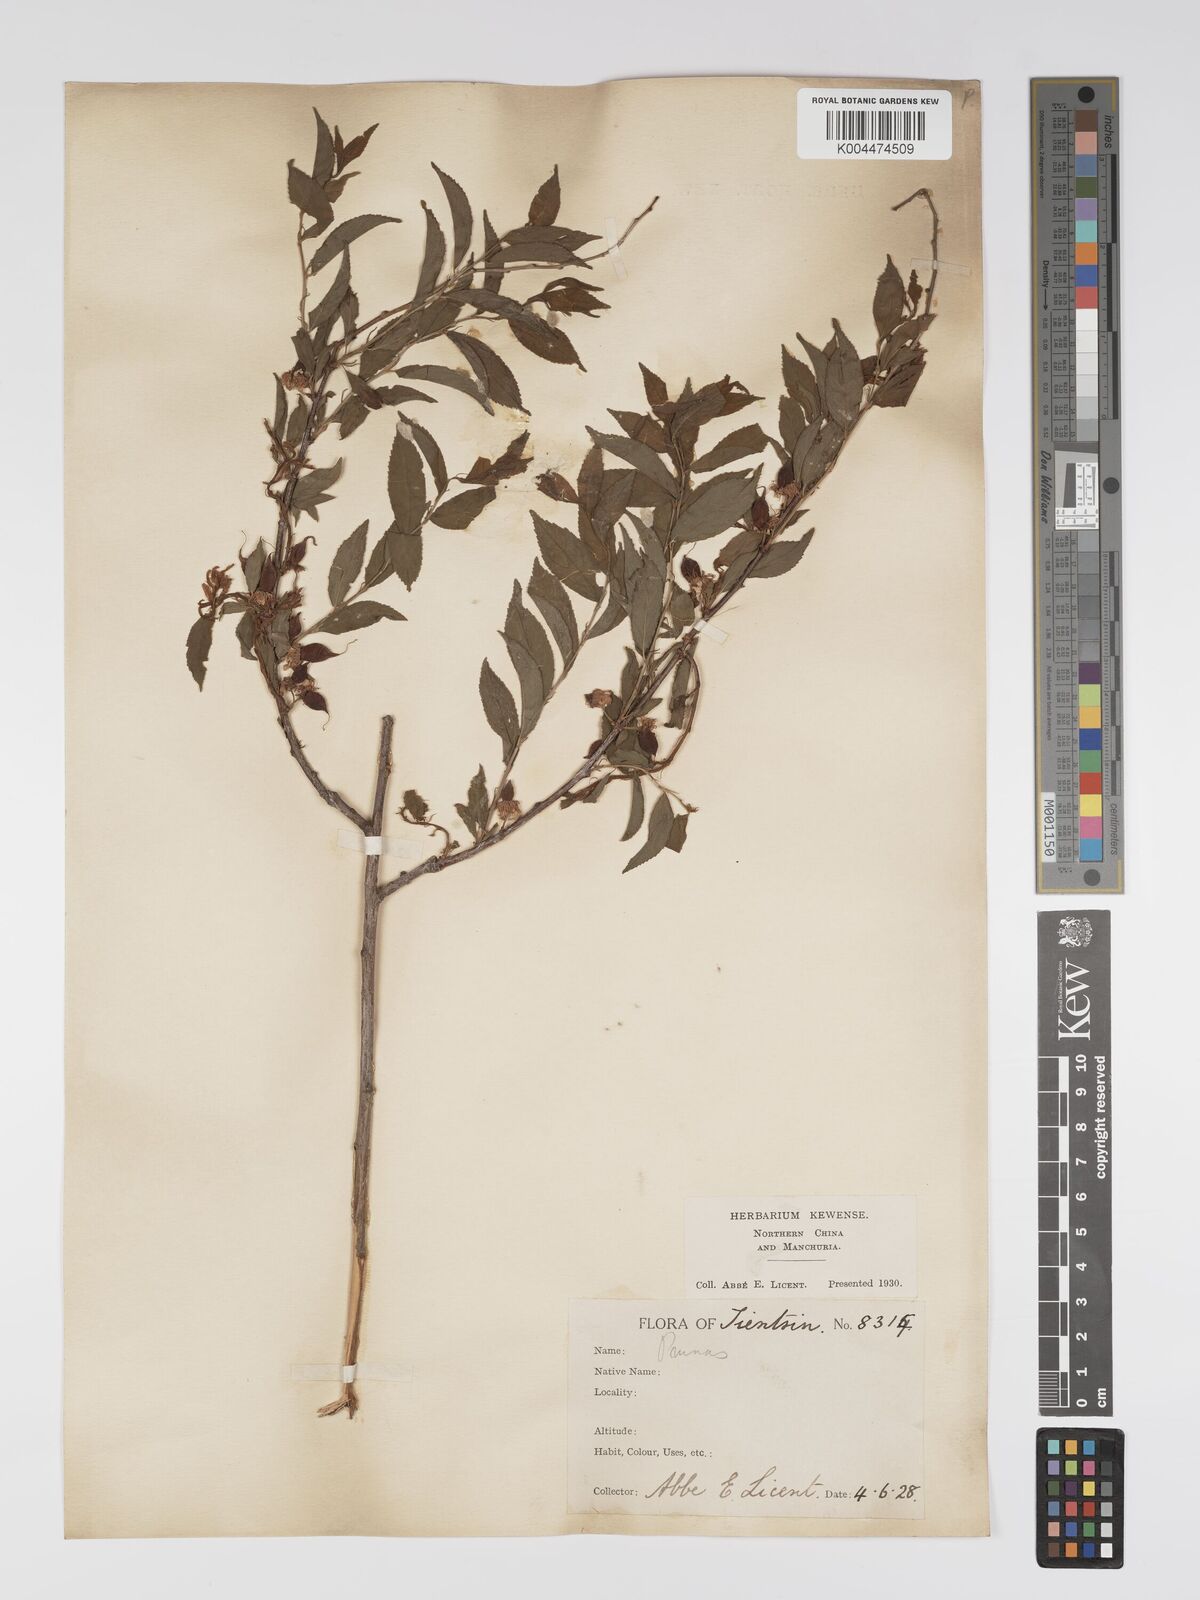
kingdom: Plantae
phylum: Tracheophyta
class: Magnoliopsida
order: Rosales
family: Rosaceae
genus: Prunus
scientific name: Prunus
